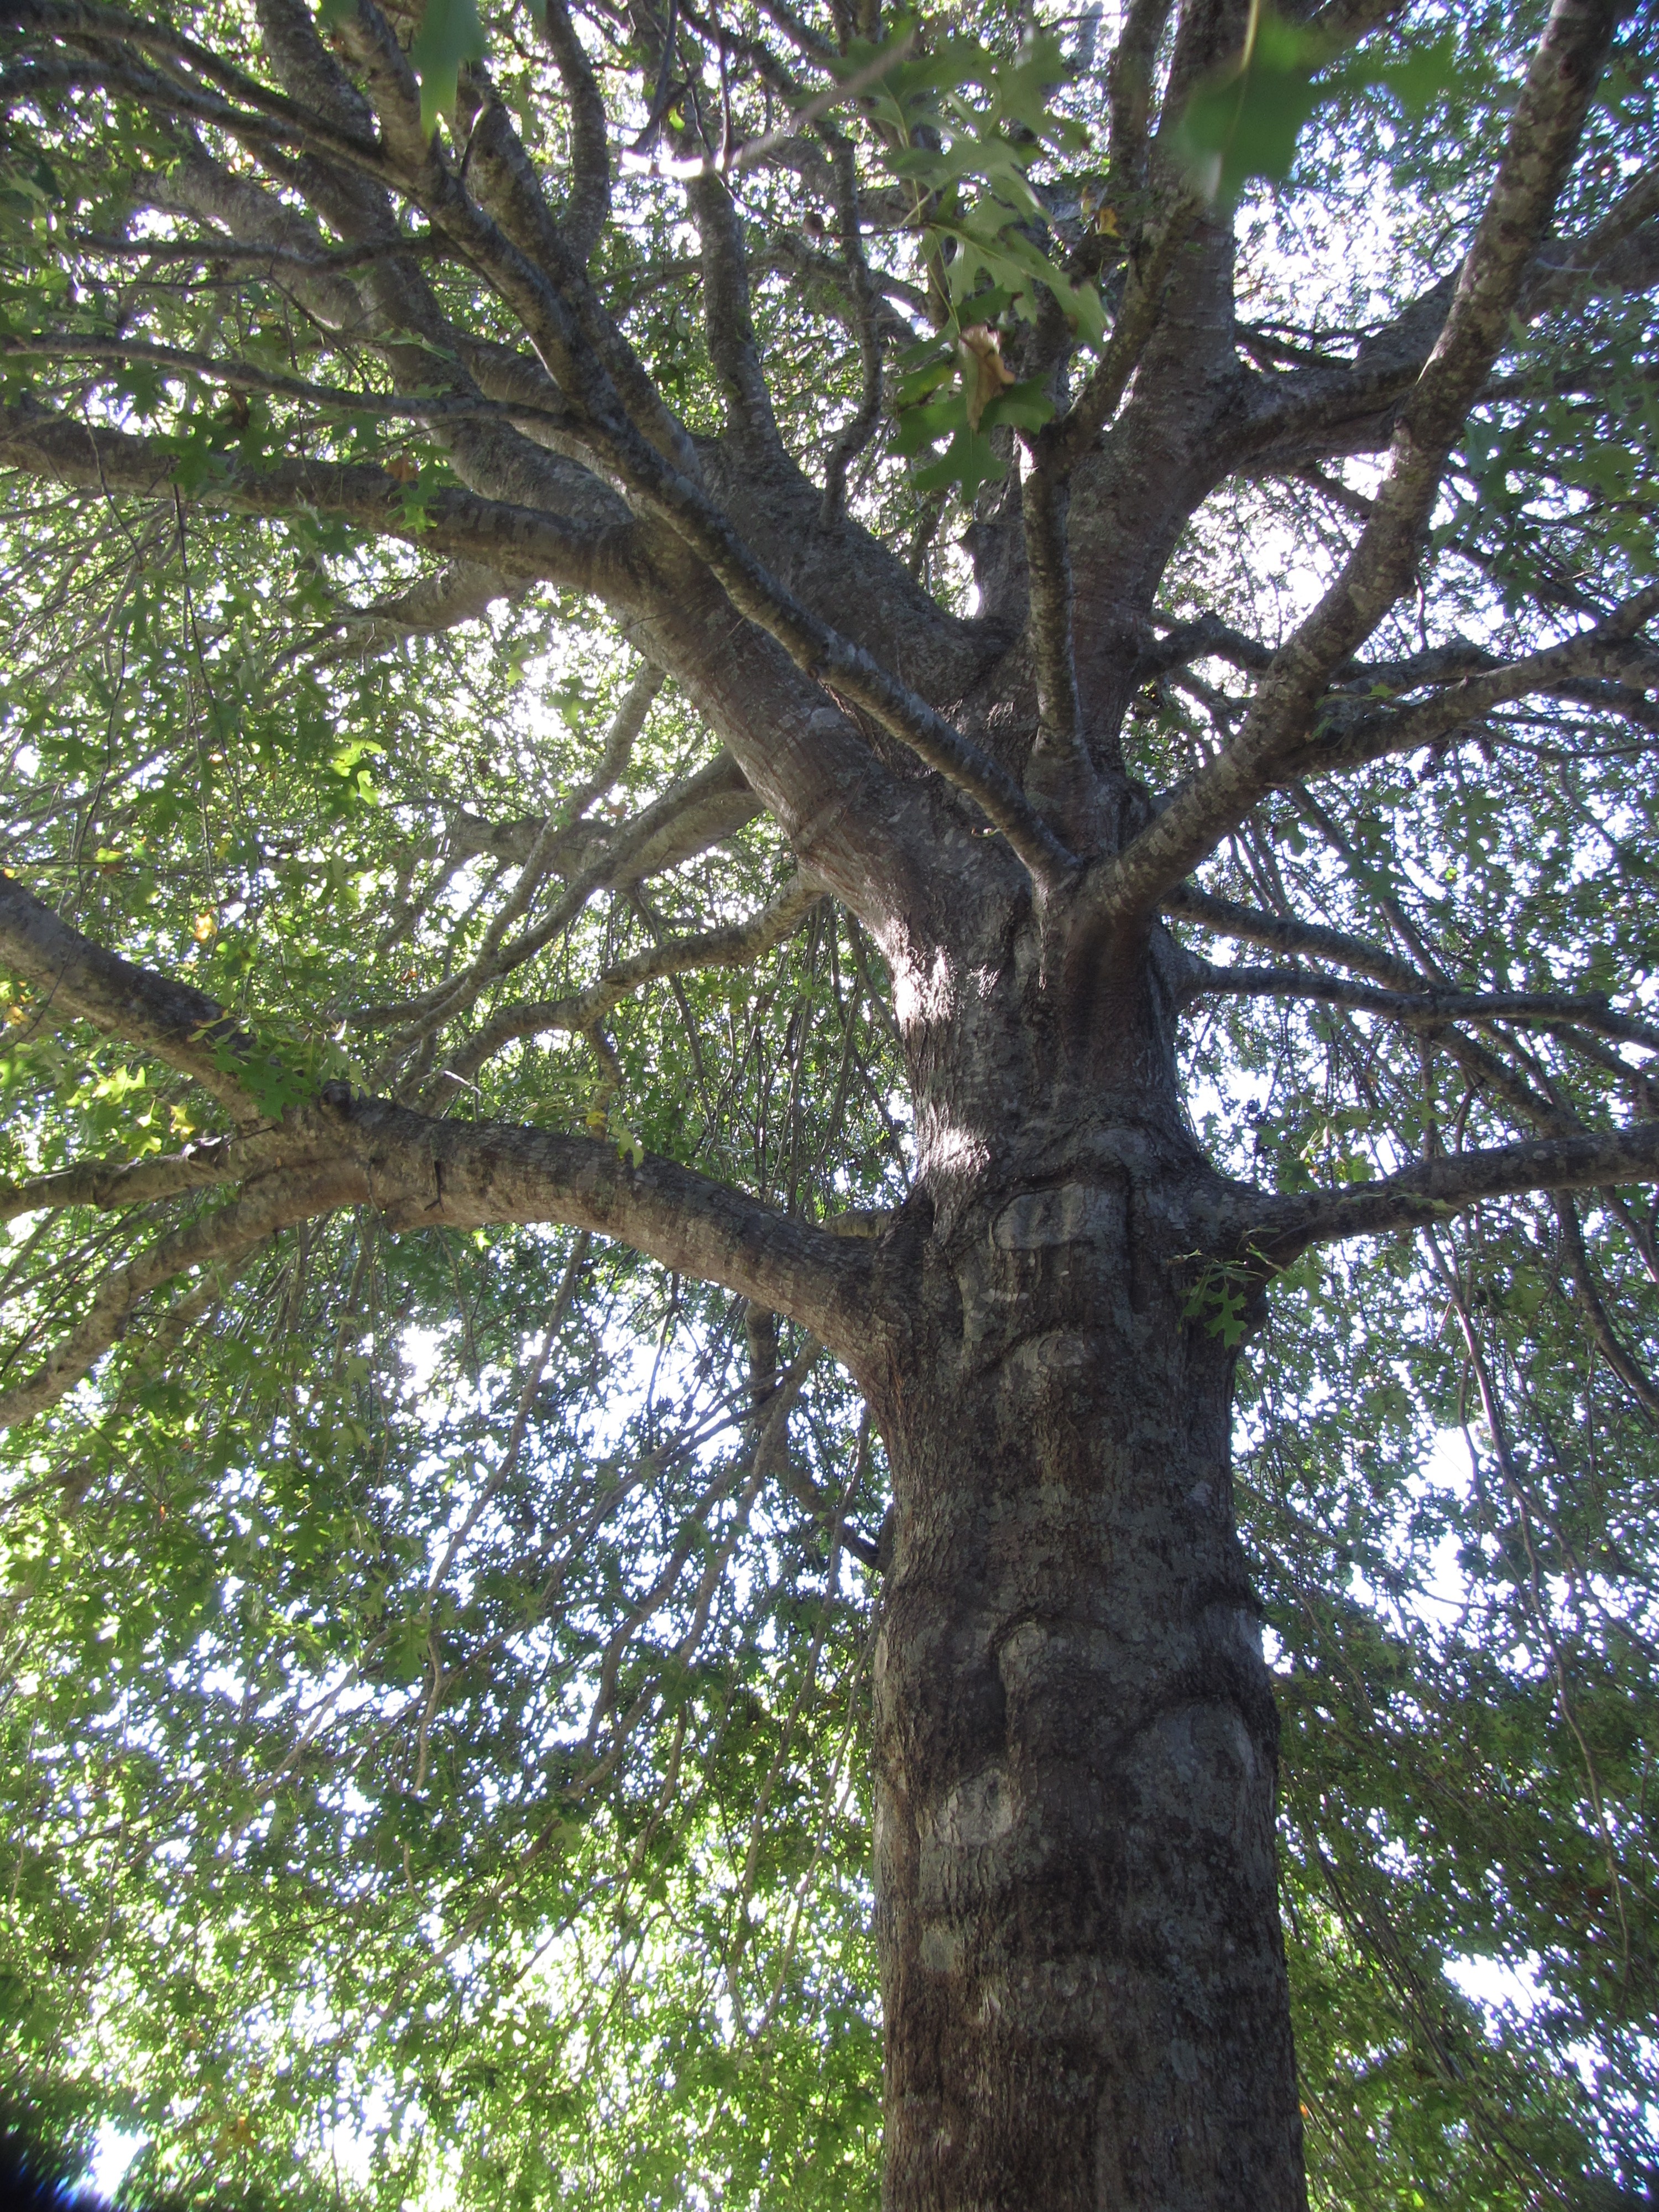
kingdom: Plantae
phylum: Tracheophyta
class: Magnoliopsida
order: Fagales
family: Fagaceae
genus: Quercus
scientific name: Quercus palustris
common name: Pin oak
